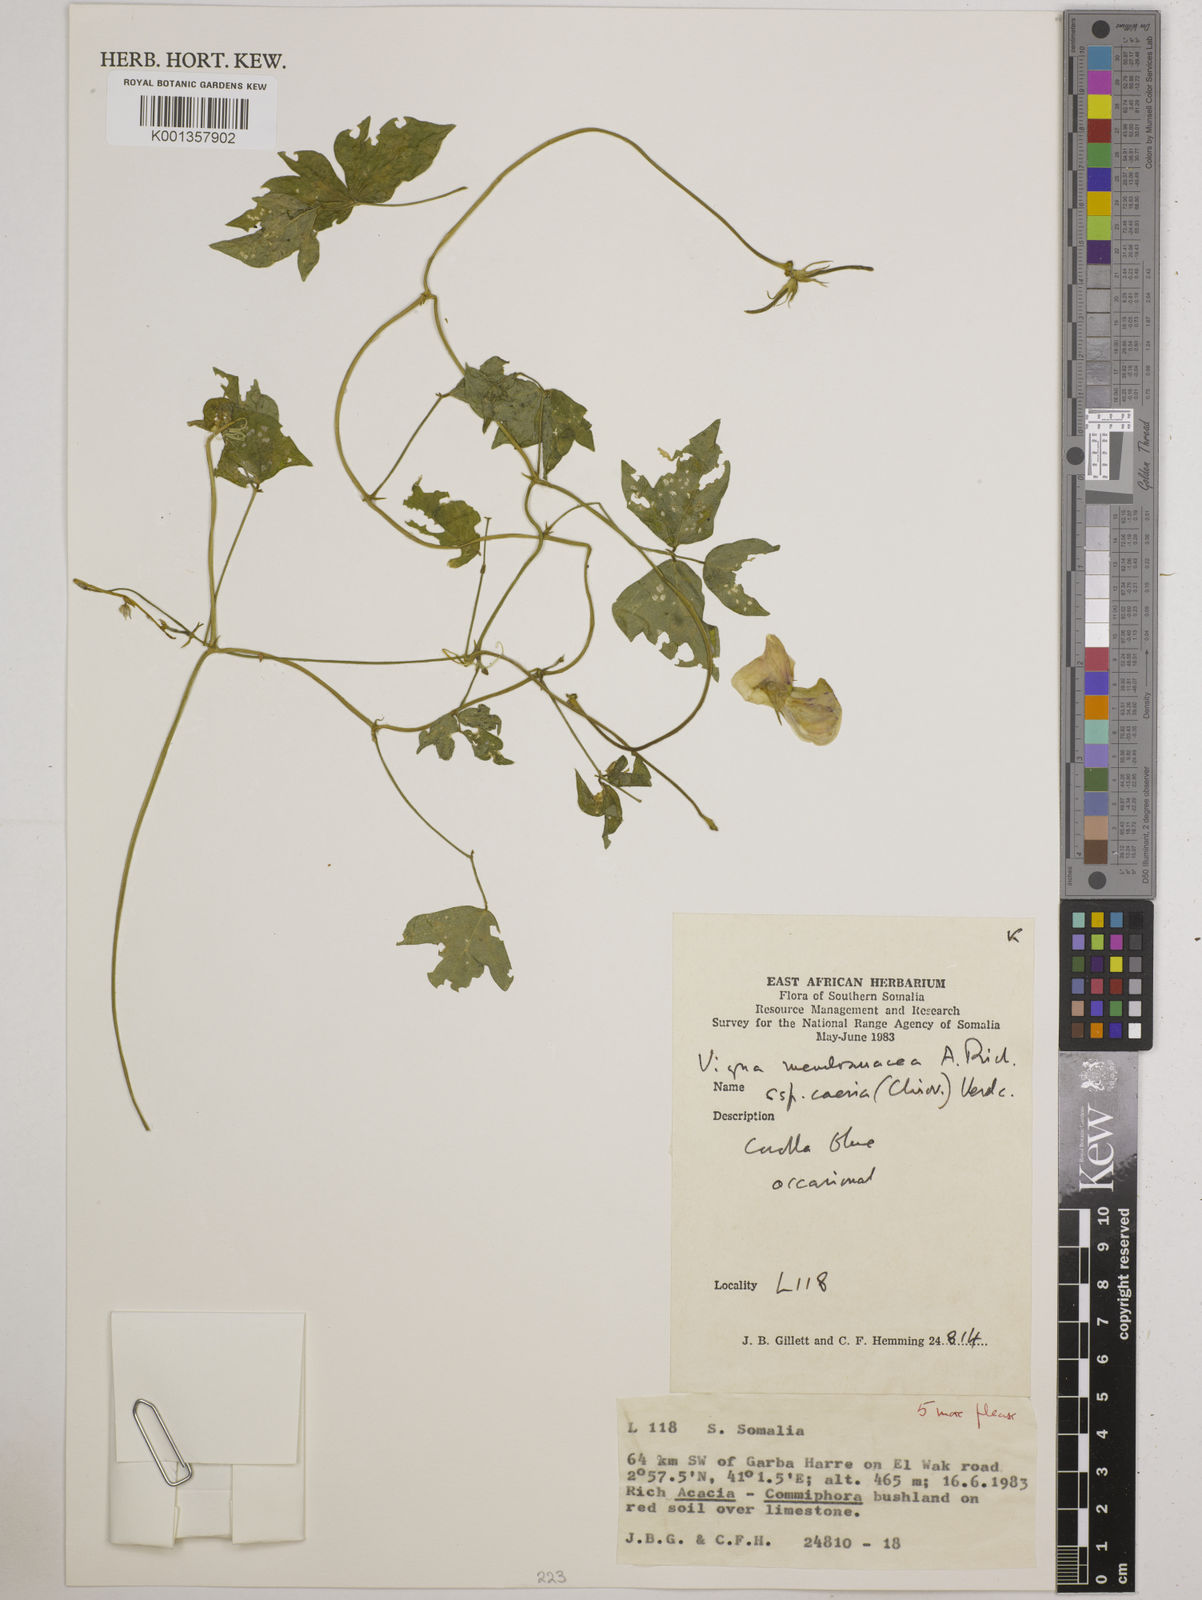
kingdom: Plantae
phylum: Tracheophyta
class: Magnoliopsida
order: Fabales
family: Fabaceae
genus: Vigna
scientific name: Vigna
